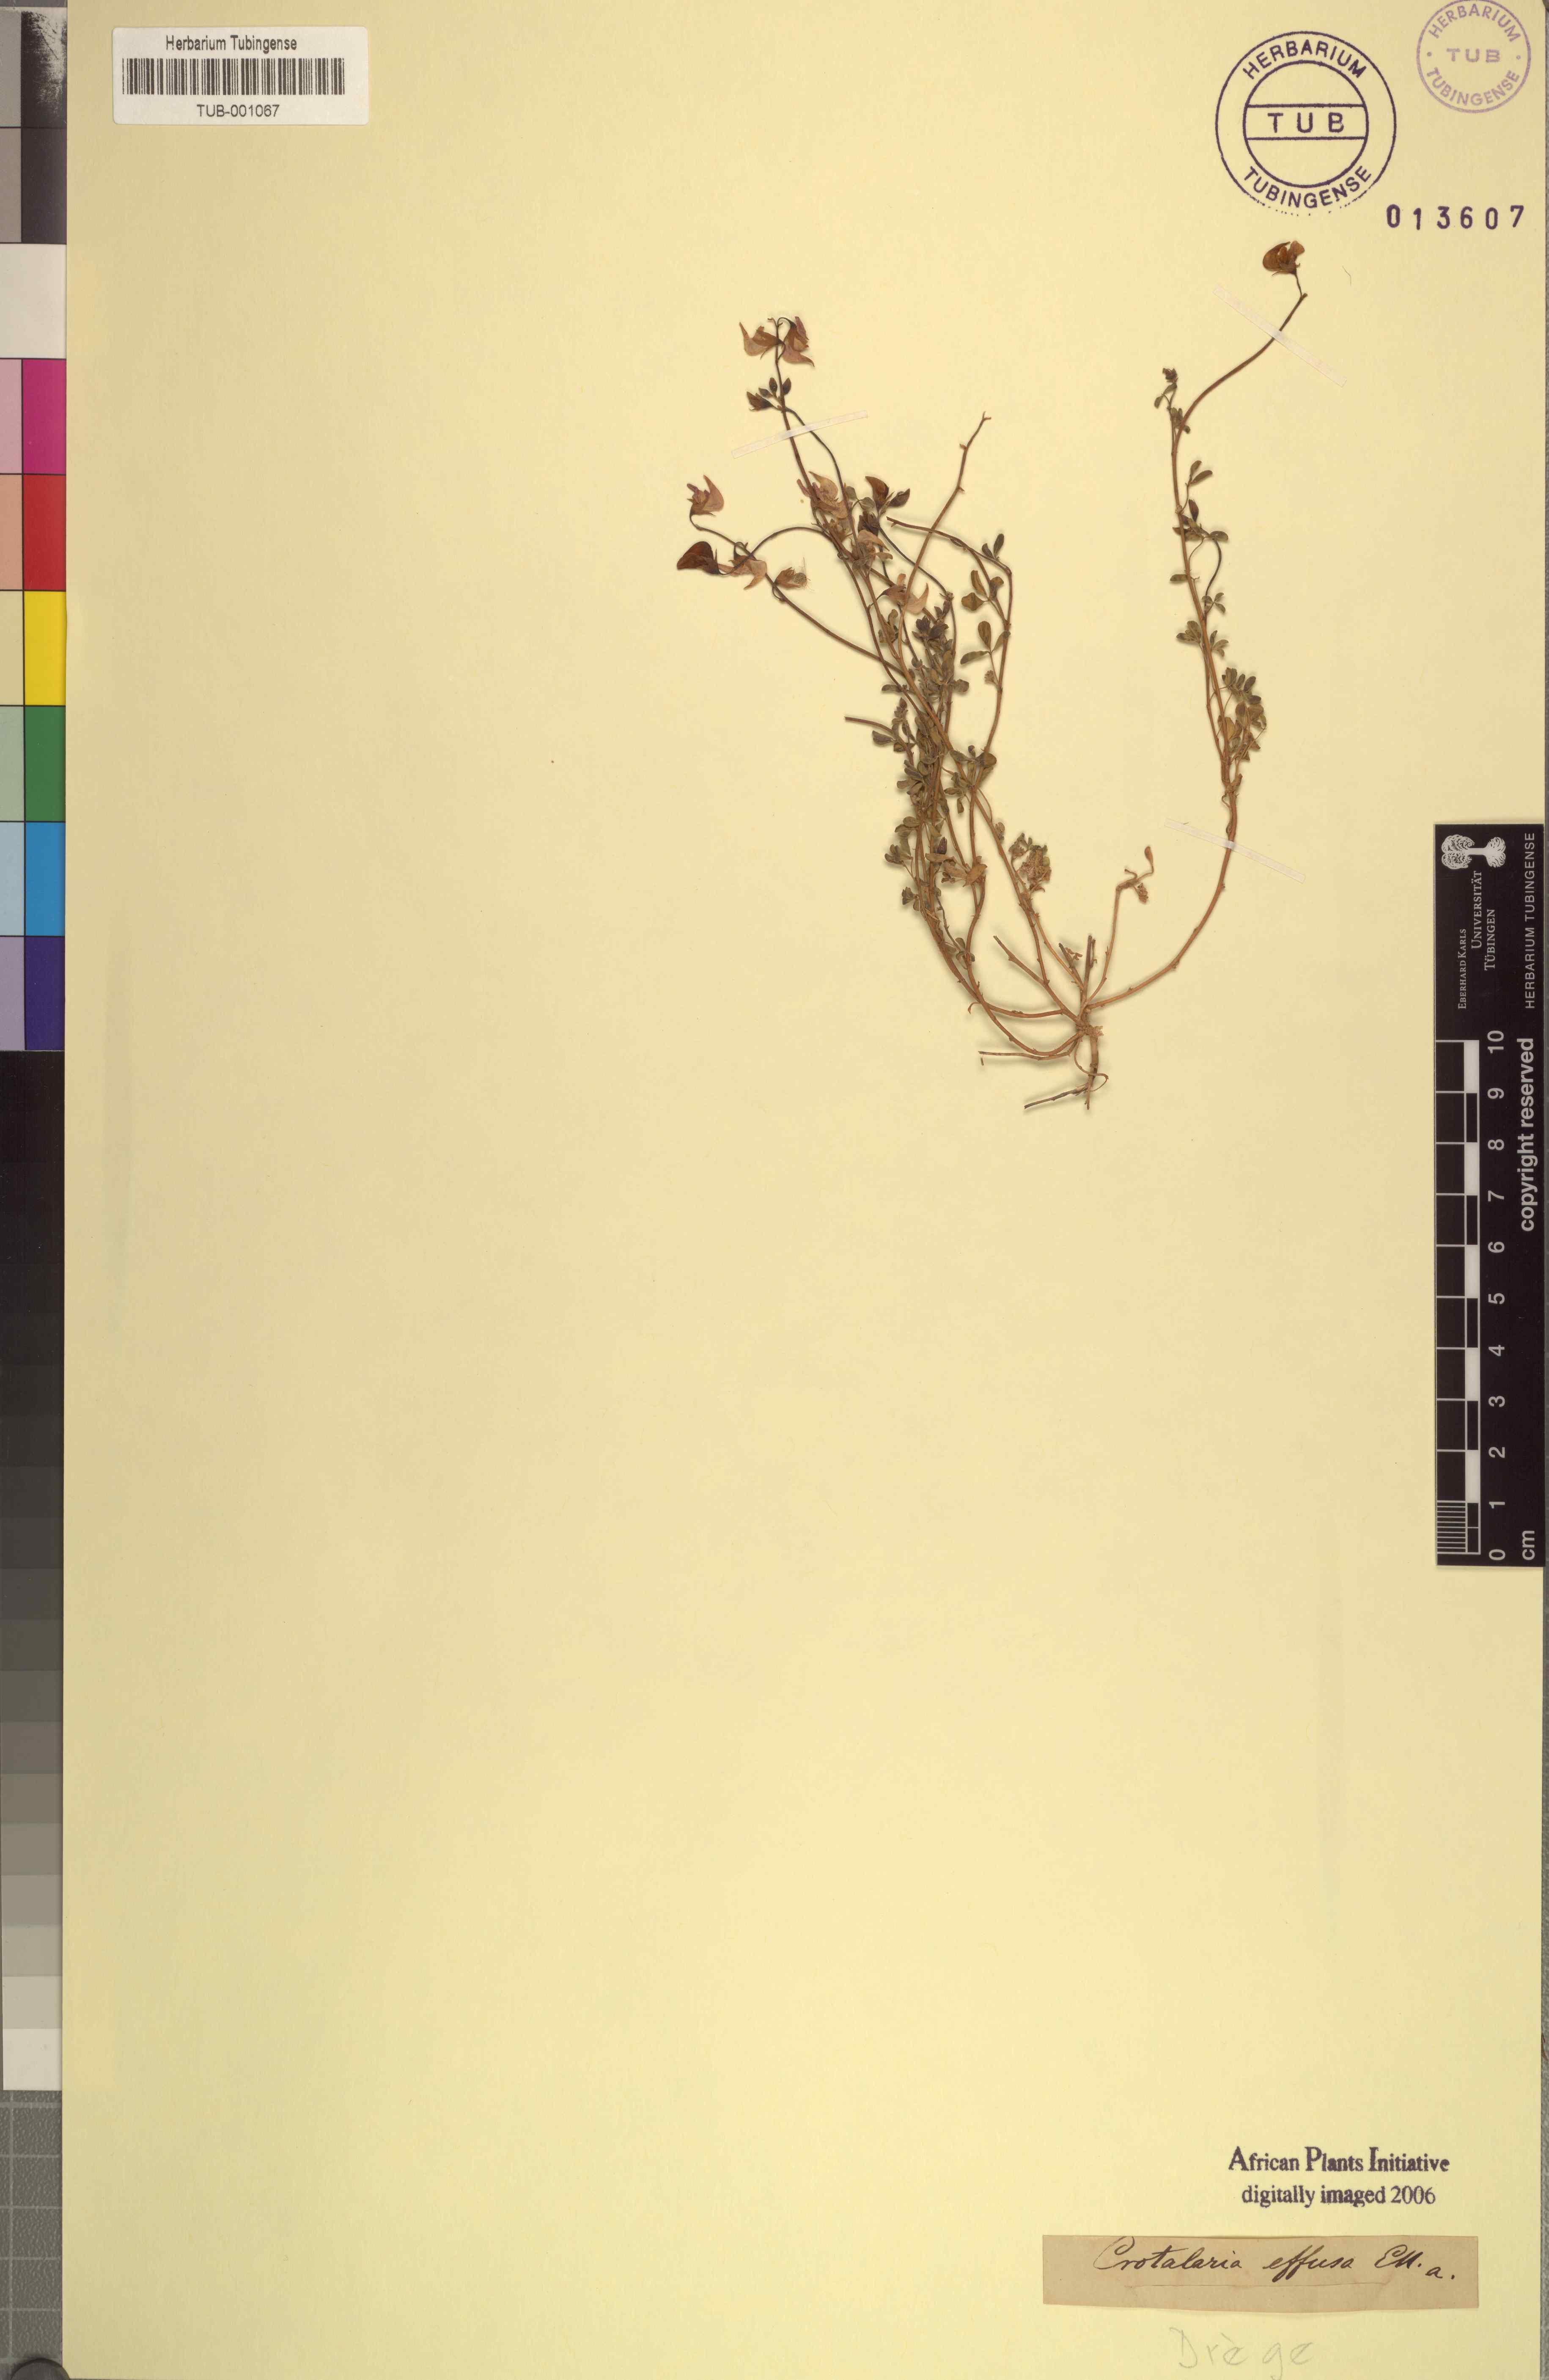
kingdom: Plantae
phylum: Tracheophyta
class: Magnoliopsida
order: Fabales
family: Fabaceae
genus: Crotalaria
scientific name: Crotalaria humilis
